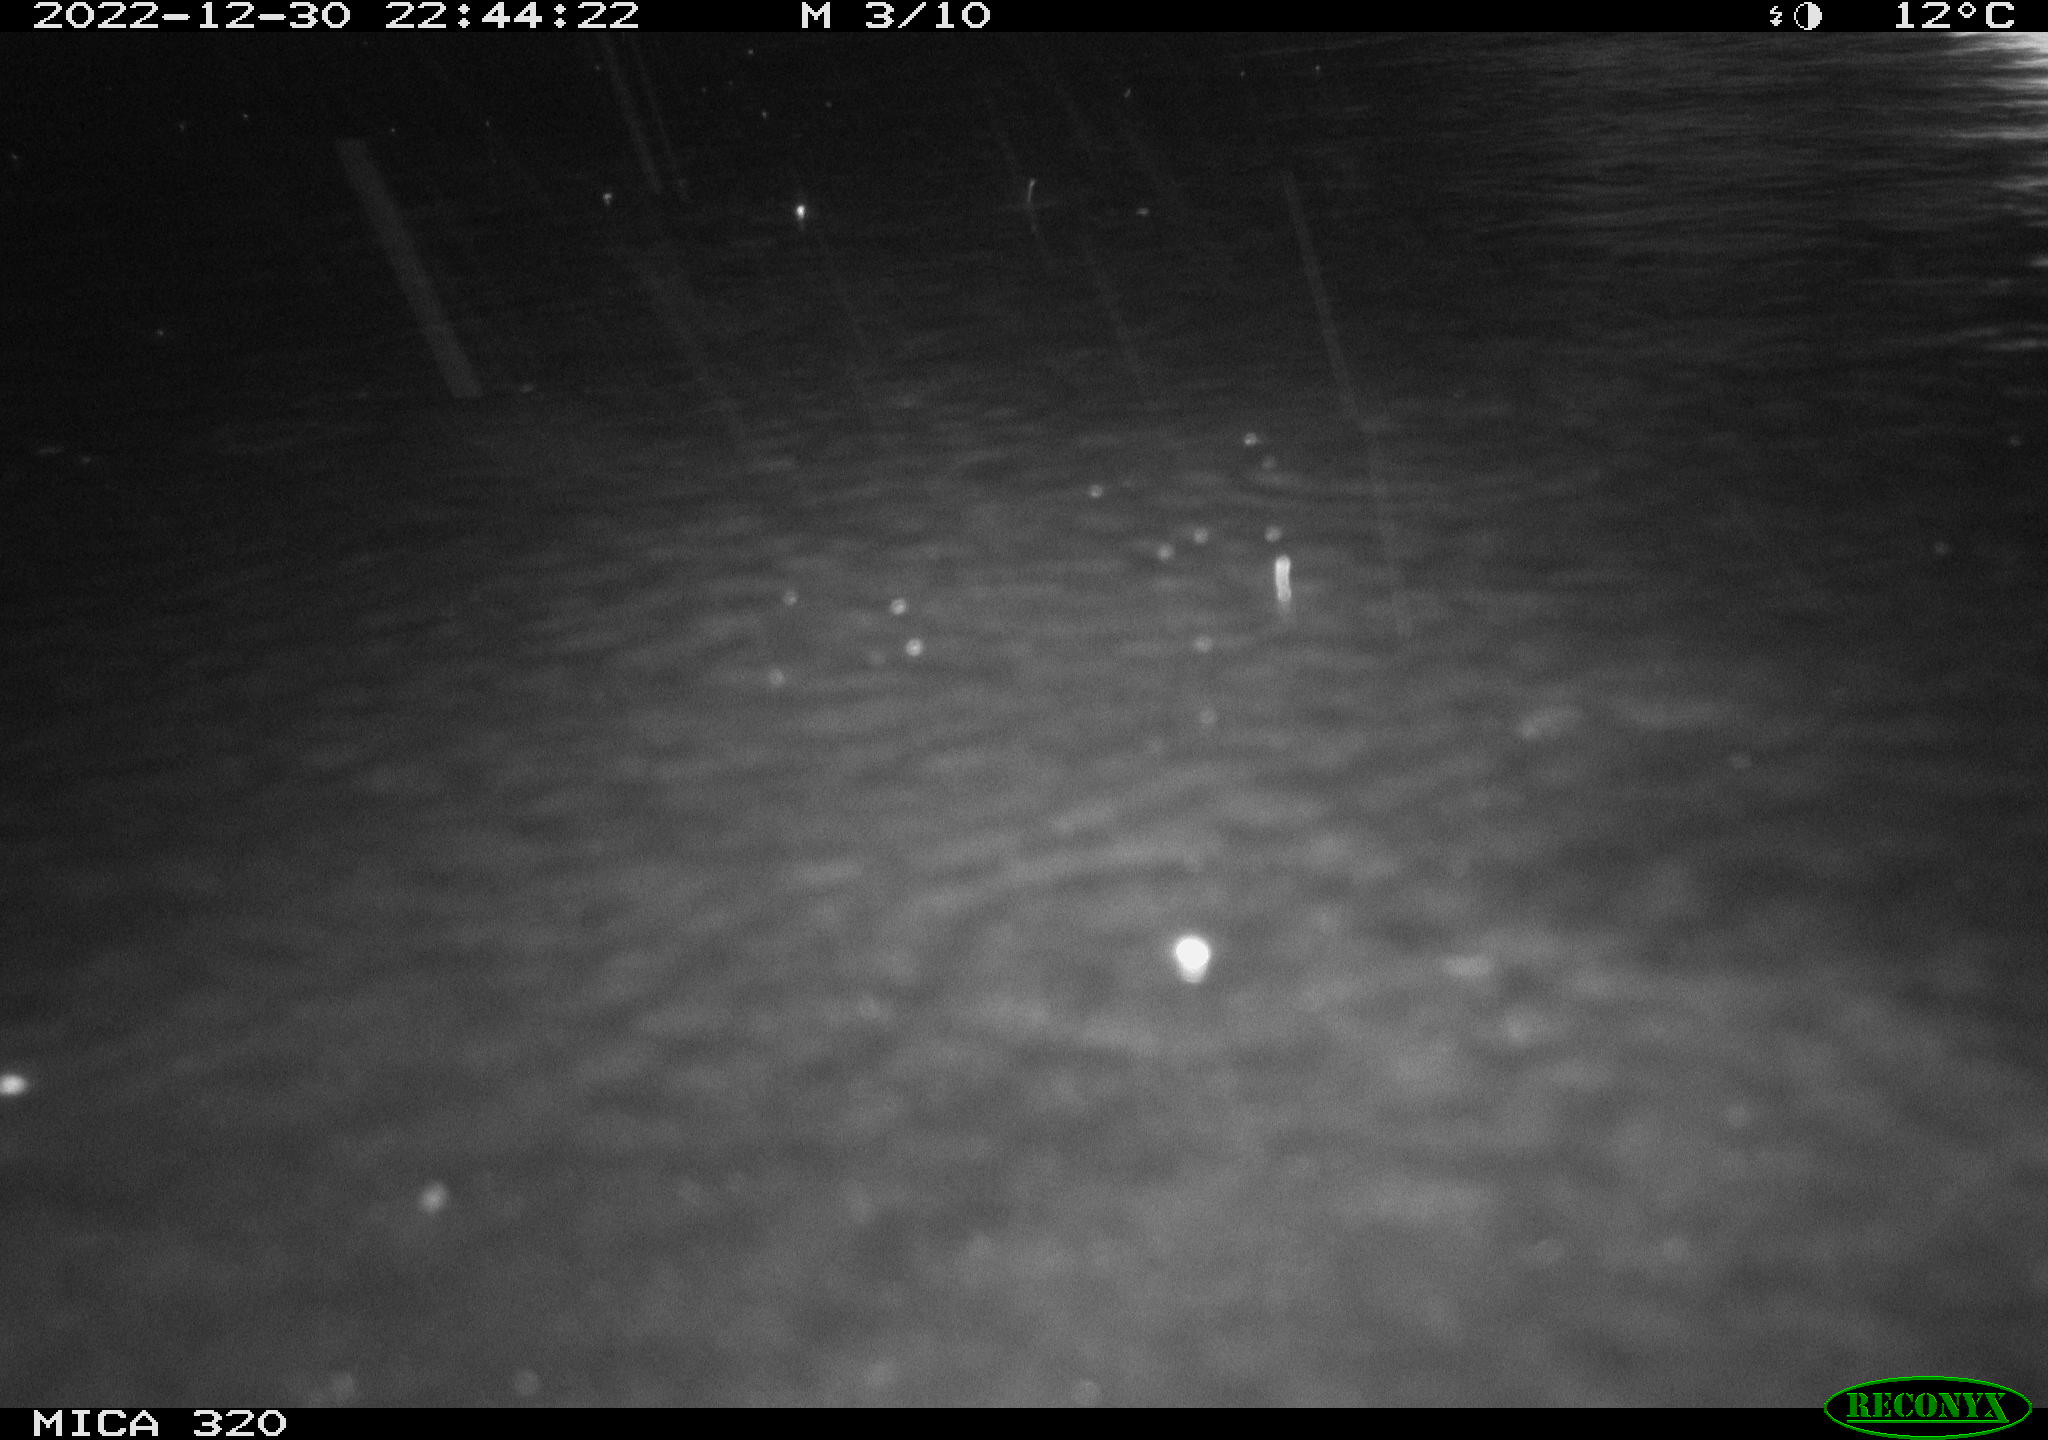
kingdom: Animalia
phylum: Chordata
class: Aves
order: Anseriformes
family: Anatidae
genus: Anas
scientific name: Anas
